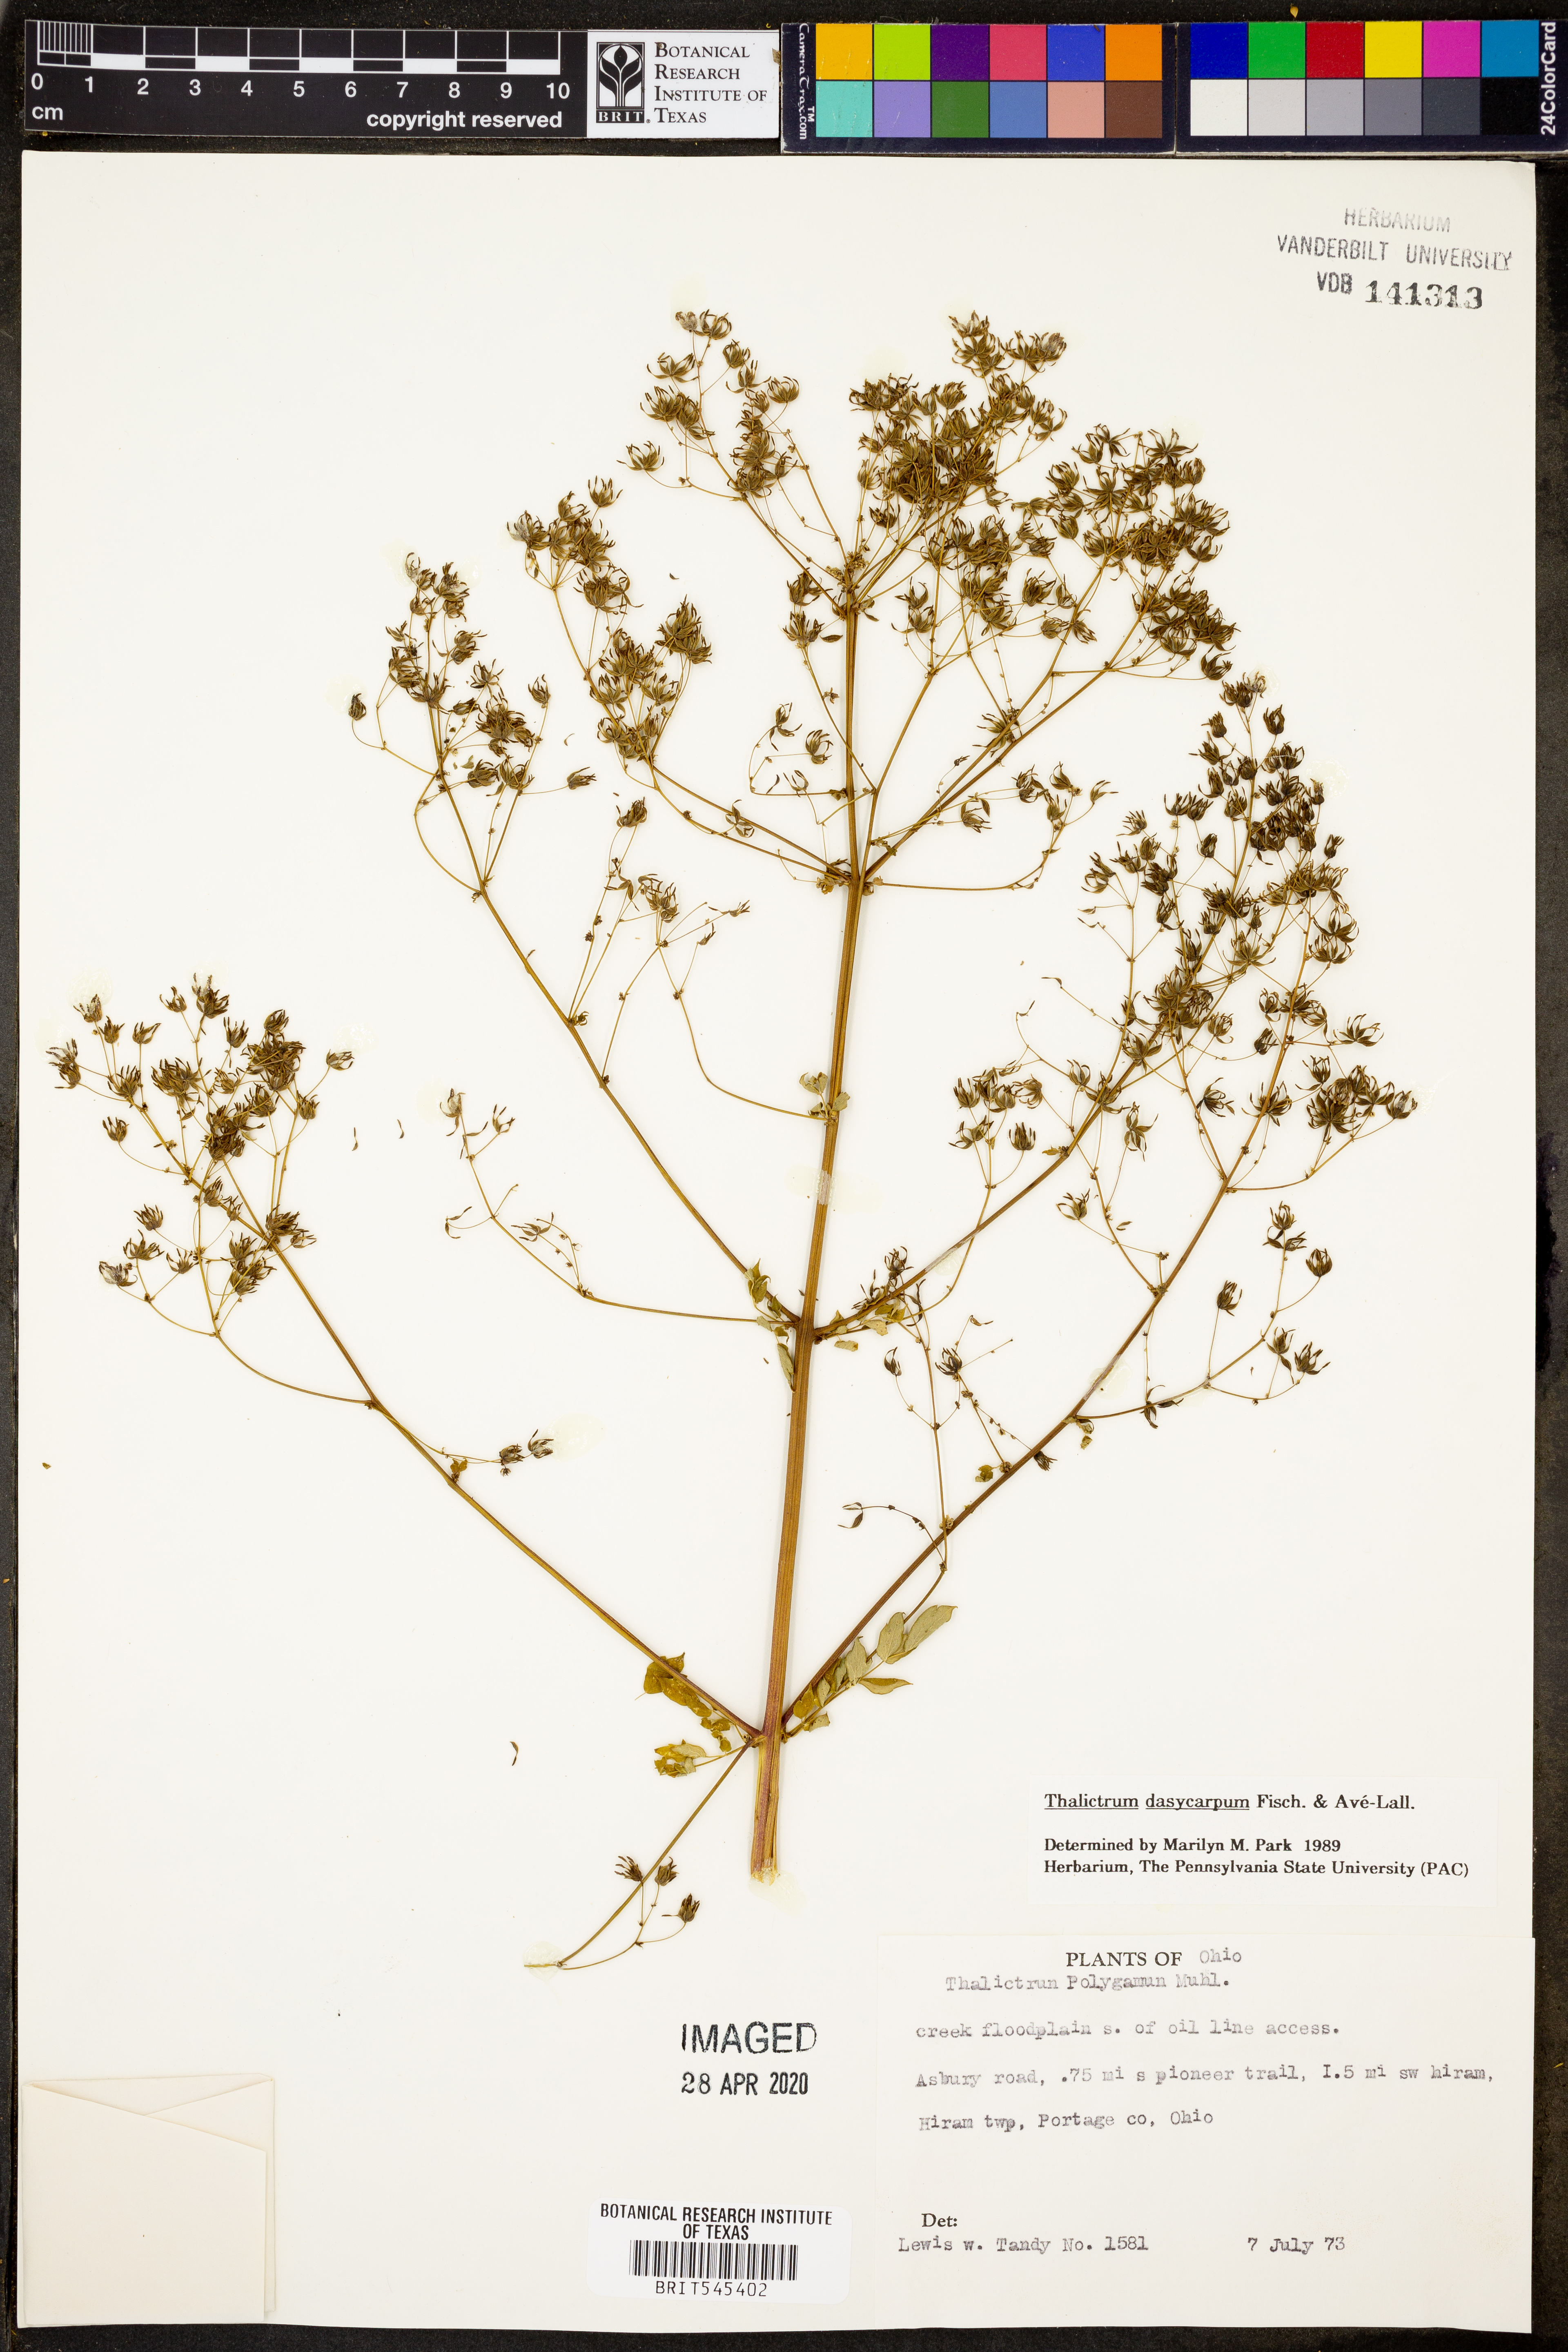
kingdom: Plantae
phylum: Tracheophyta
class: Magnoliopsida
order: Ranunculales
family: Ranunculaceae
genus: Thalictrum
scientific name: Thalictrum dasycarpum
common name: Purple meadow-rue
